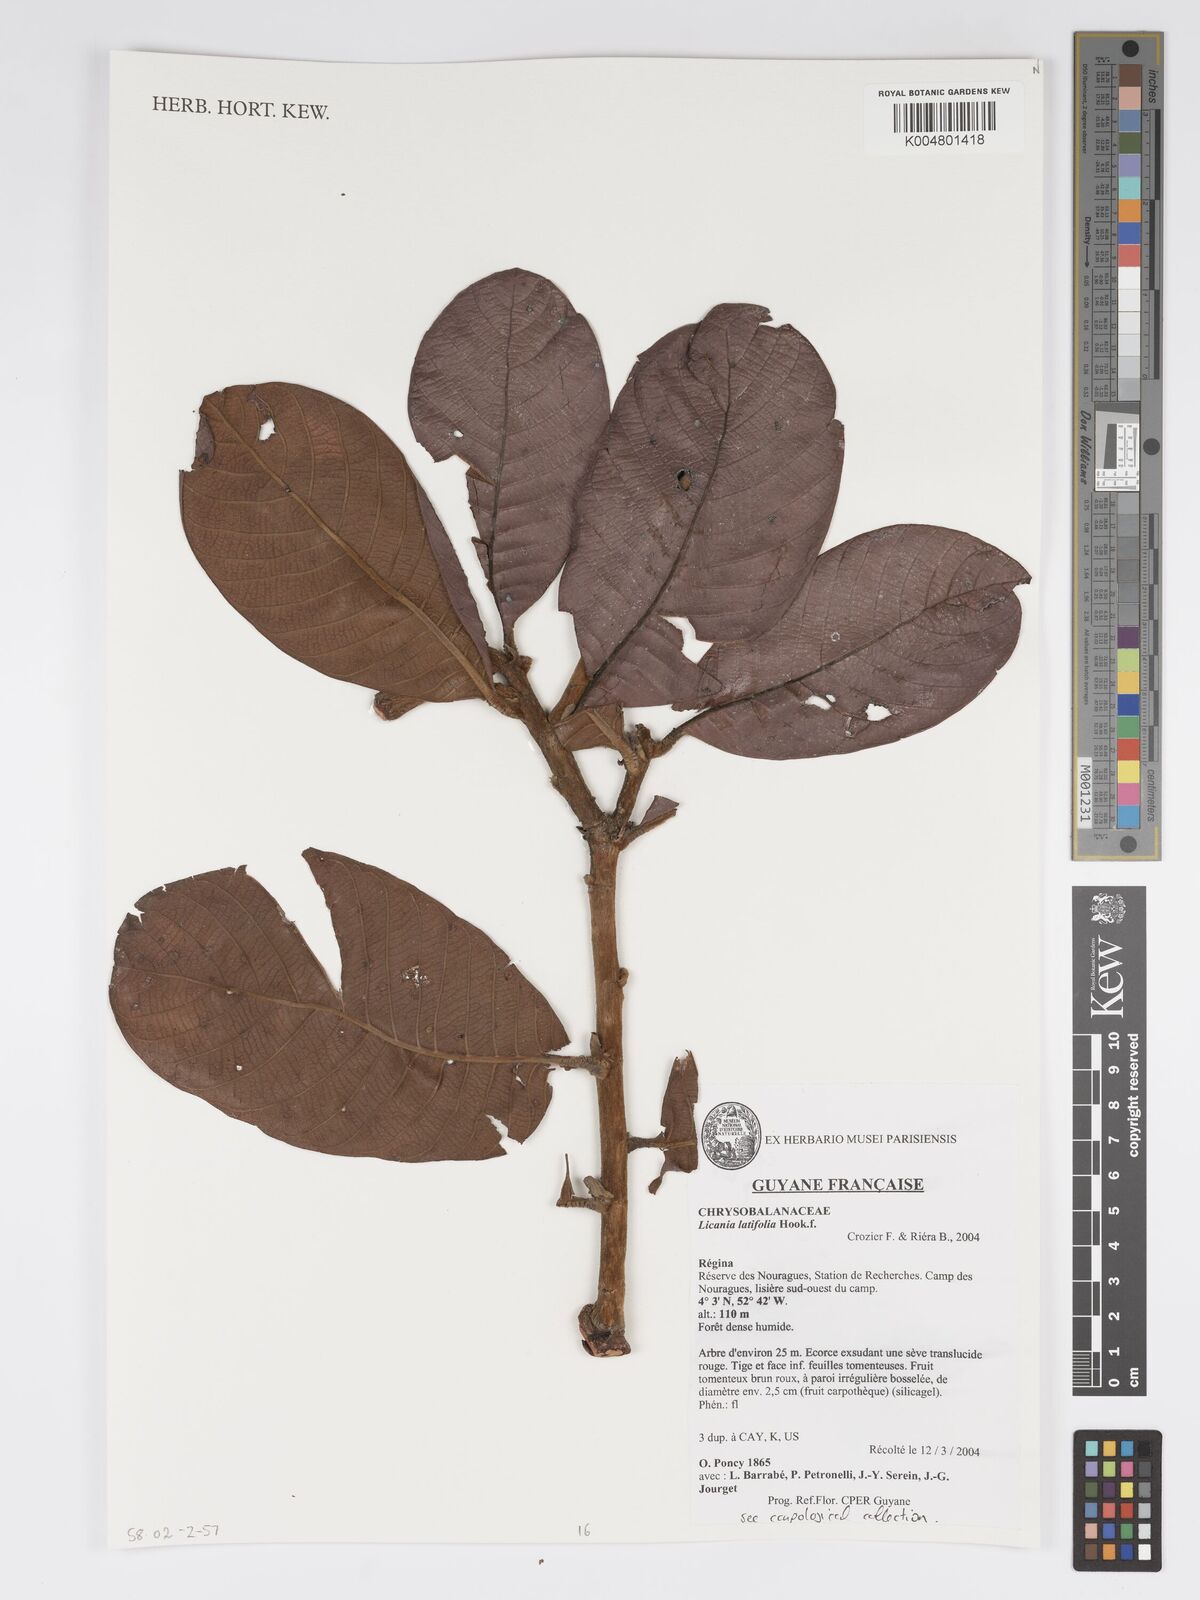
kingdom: Plantae
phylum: Tracheophyta
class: Magnoliopsida
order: Malpighiales
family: Chrysobalanaceae
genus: Hymenopus
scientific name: Hymenopus latifolius
